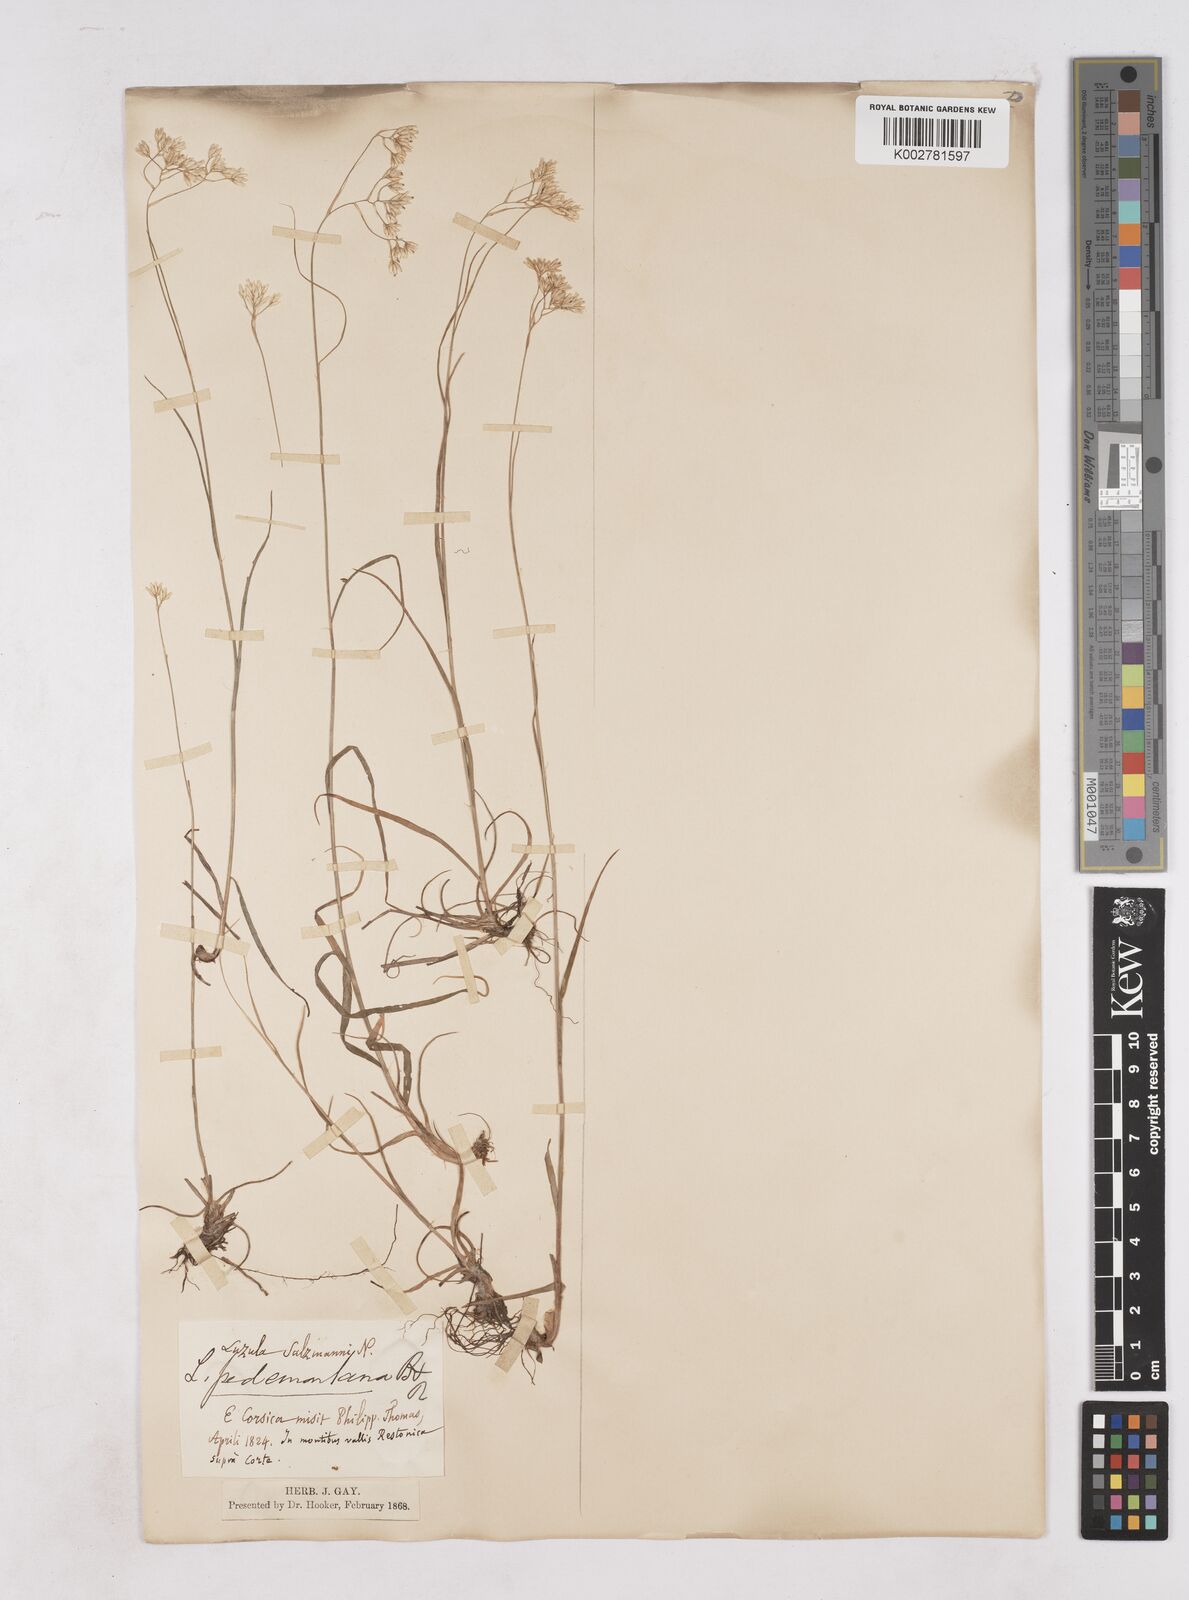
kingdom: Plantae
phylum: Tracheophyta
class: Liliopsida
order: Poales
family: Juncaceae
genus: Luzula
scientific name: Luzula pedemontana
